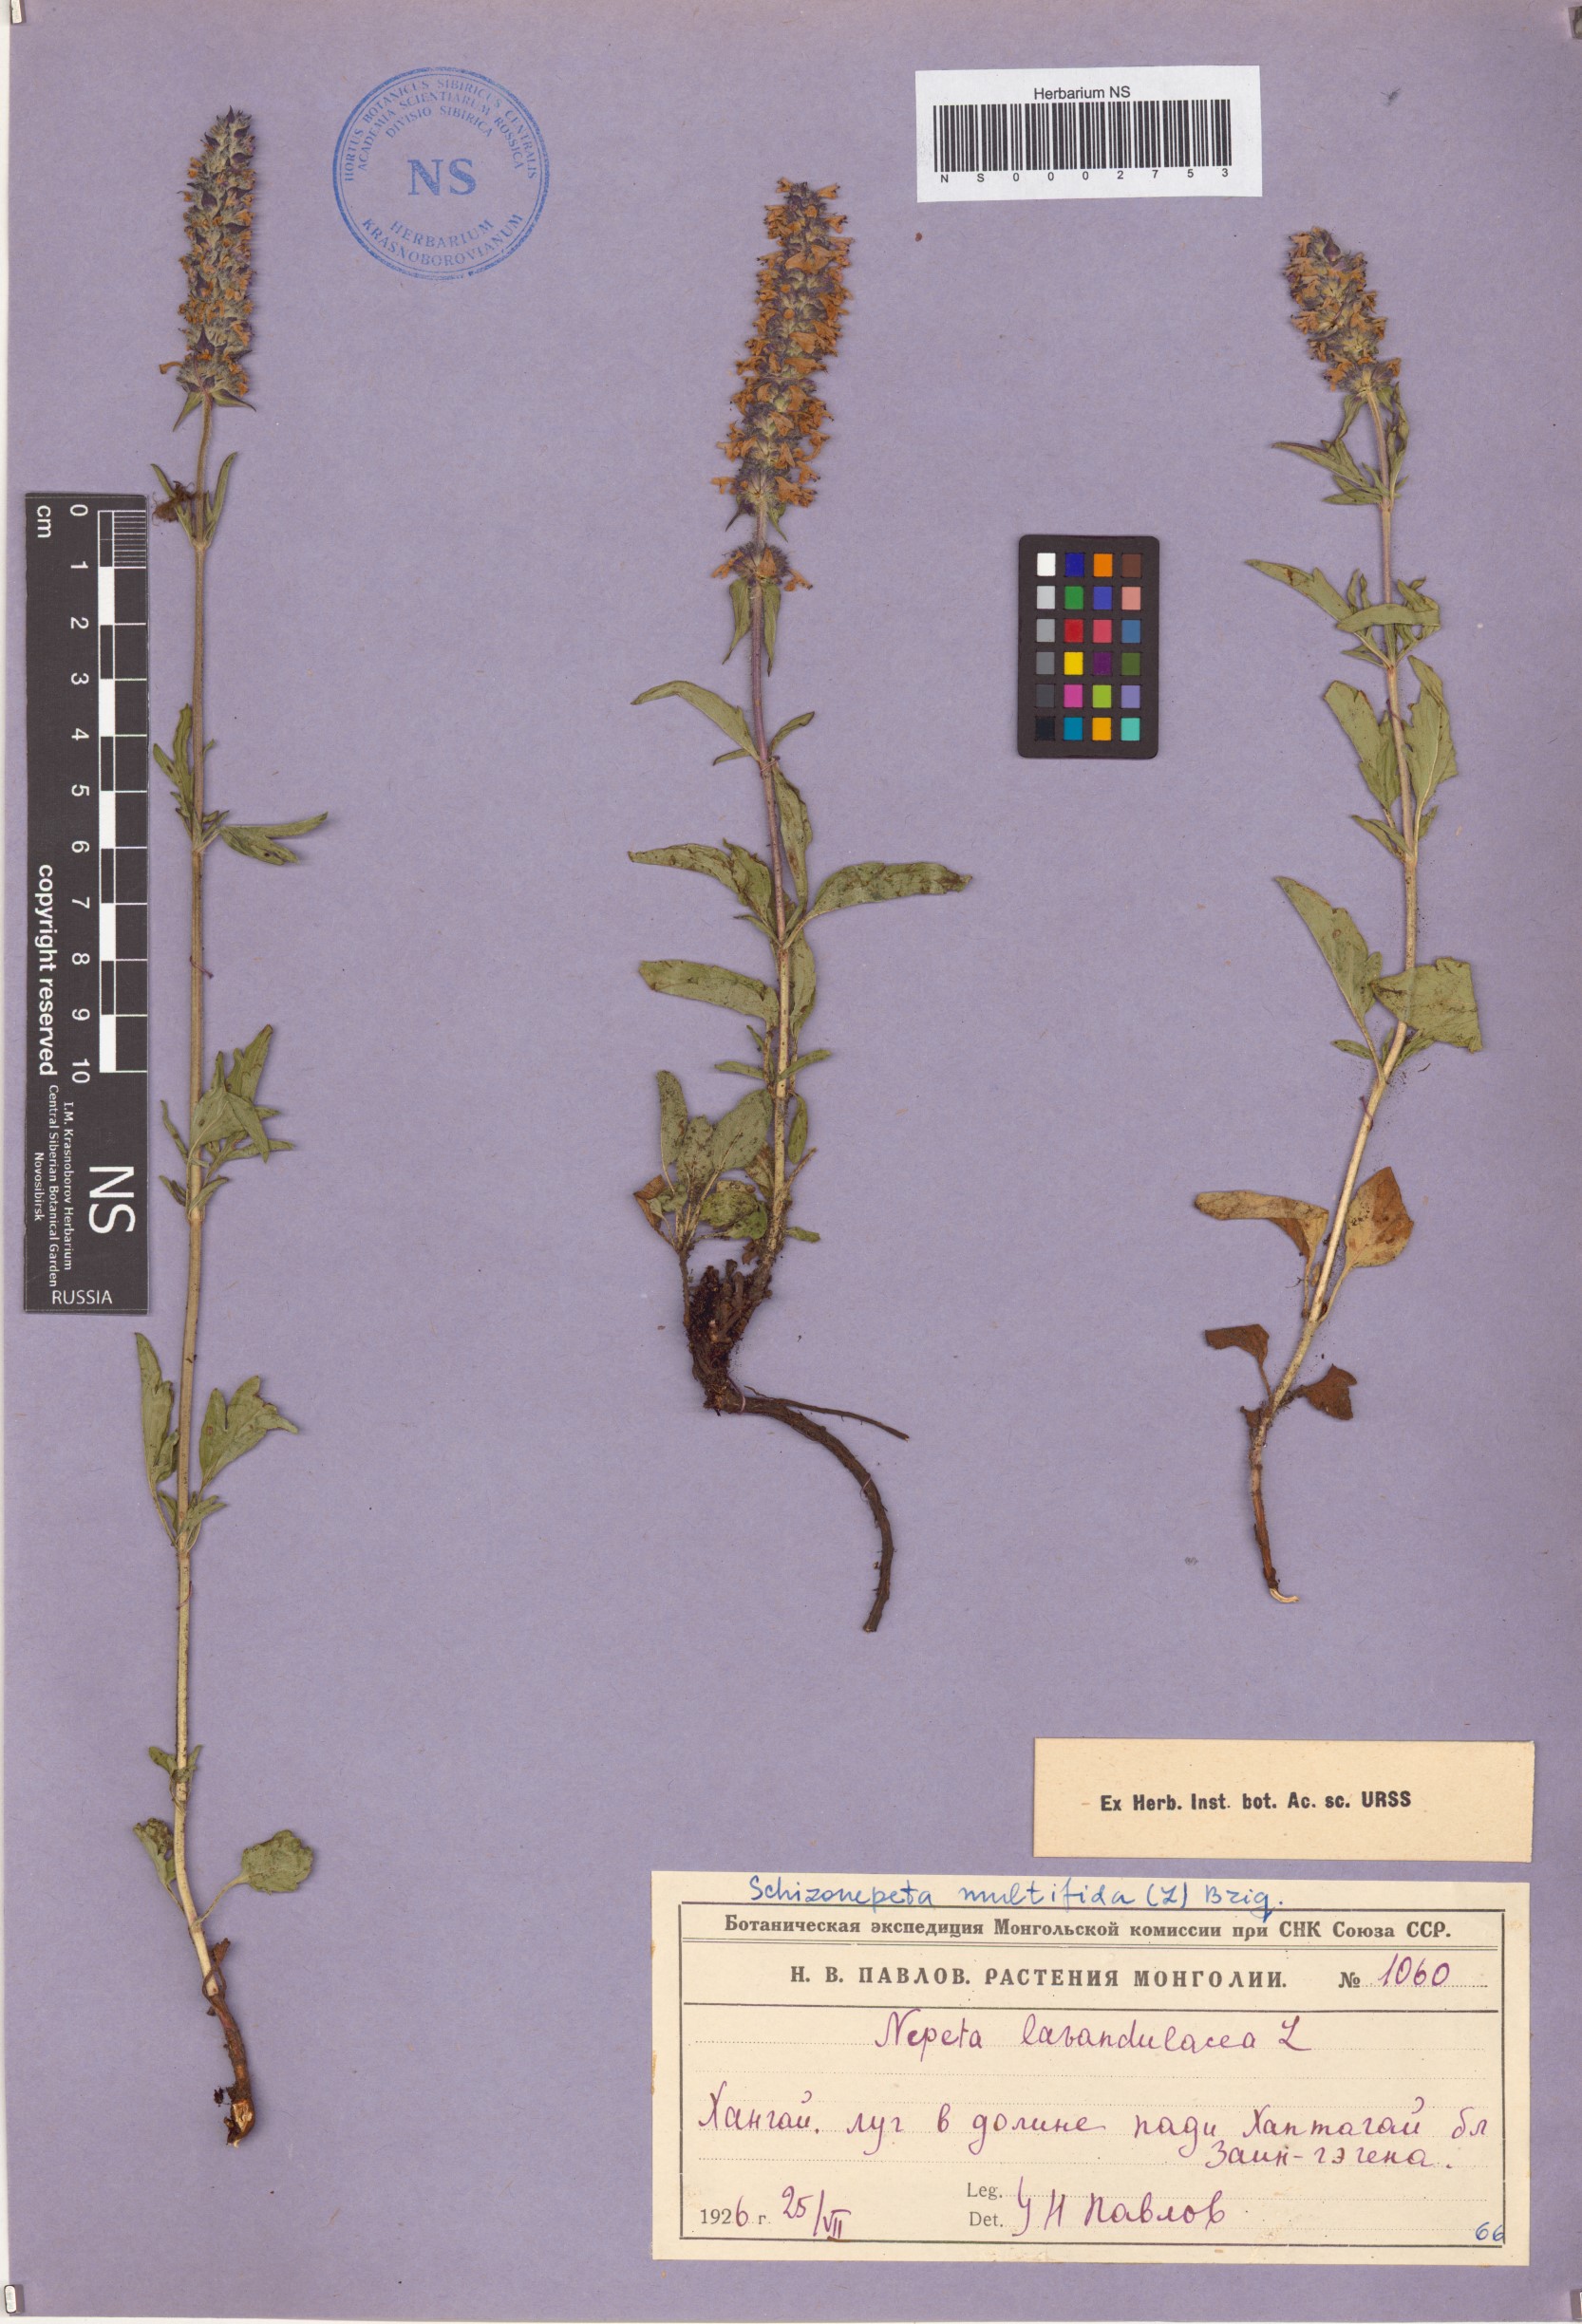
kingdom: Plantae
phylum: Tracheophyta
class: Magnoliopsida
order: Lamiales
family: Lamiaceae
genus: Nepeta
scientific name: Nepeta multifida
